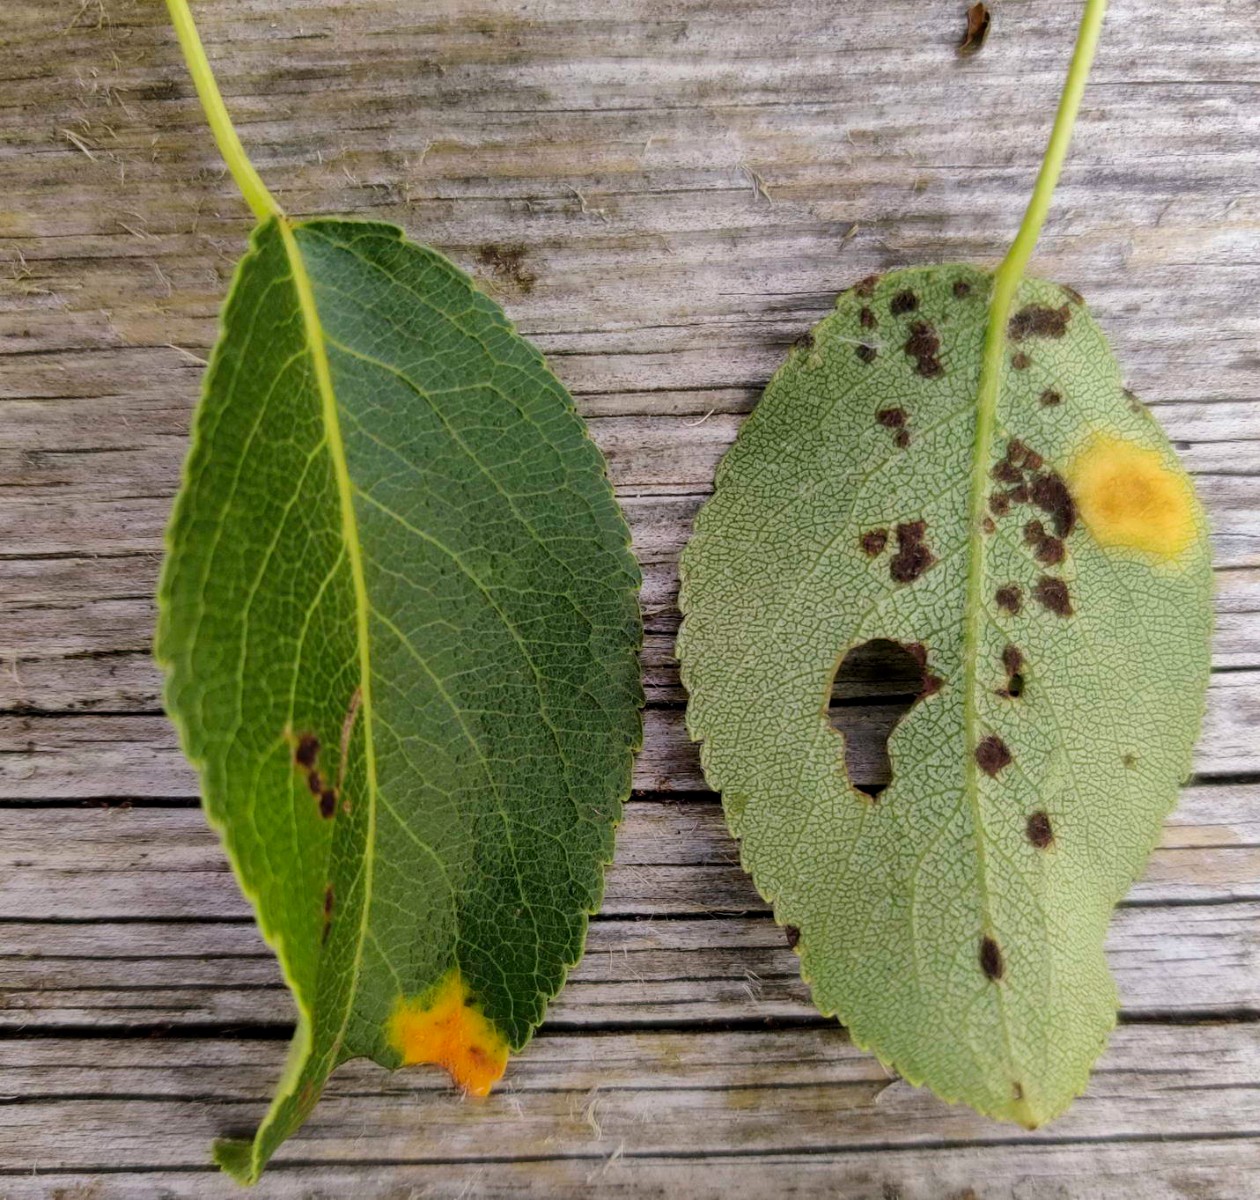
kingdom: Fungi
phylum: Basidiomycota
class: Pucciniomycetes
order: Pucciniales
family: Gymnosporangiaceae
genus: Gymnosporangium
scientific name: Gymnosporangium sabinae
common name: pæregitter-bævrerust
